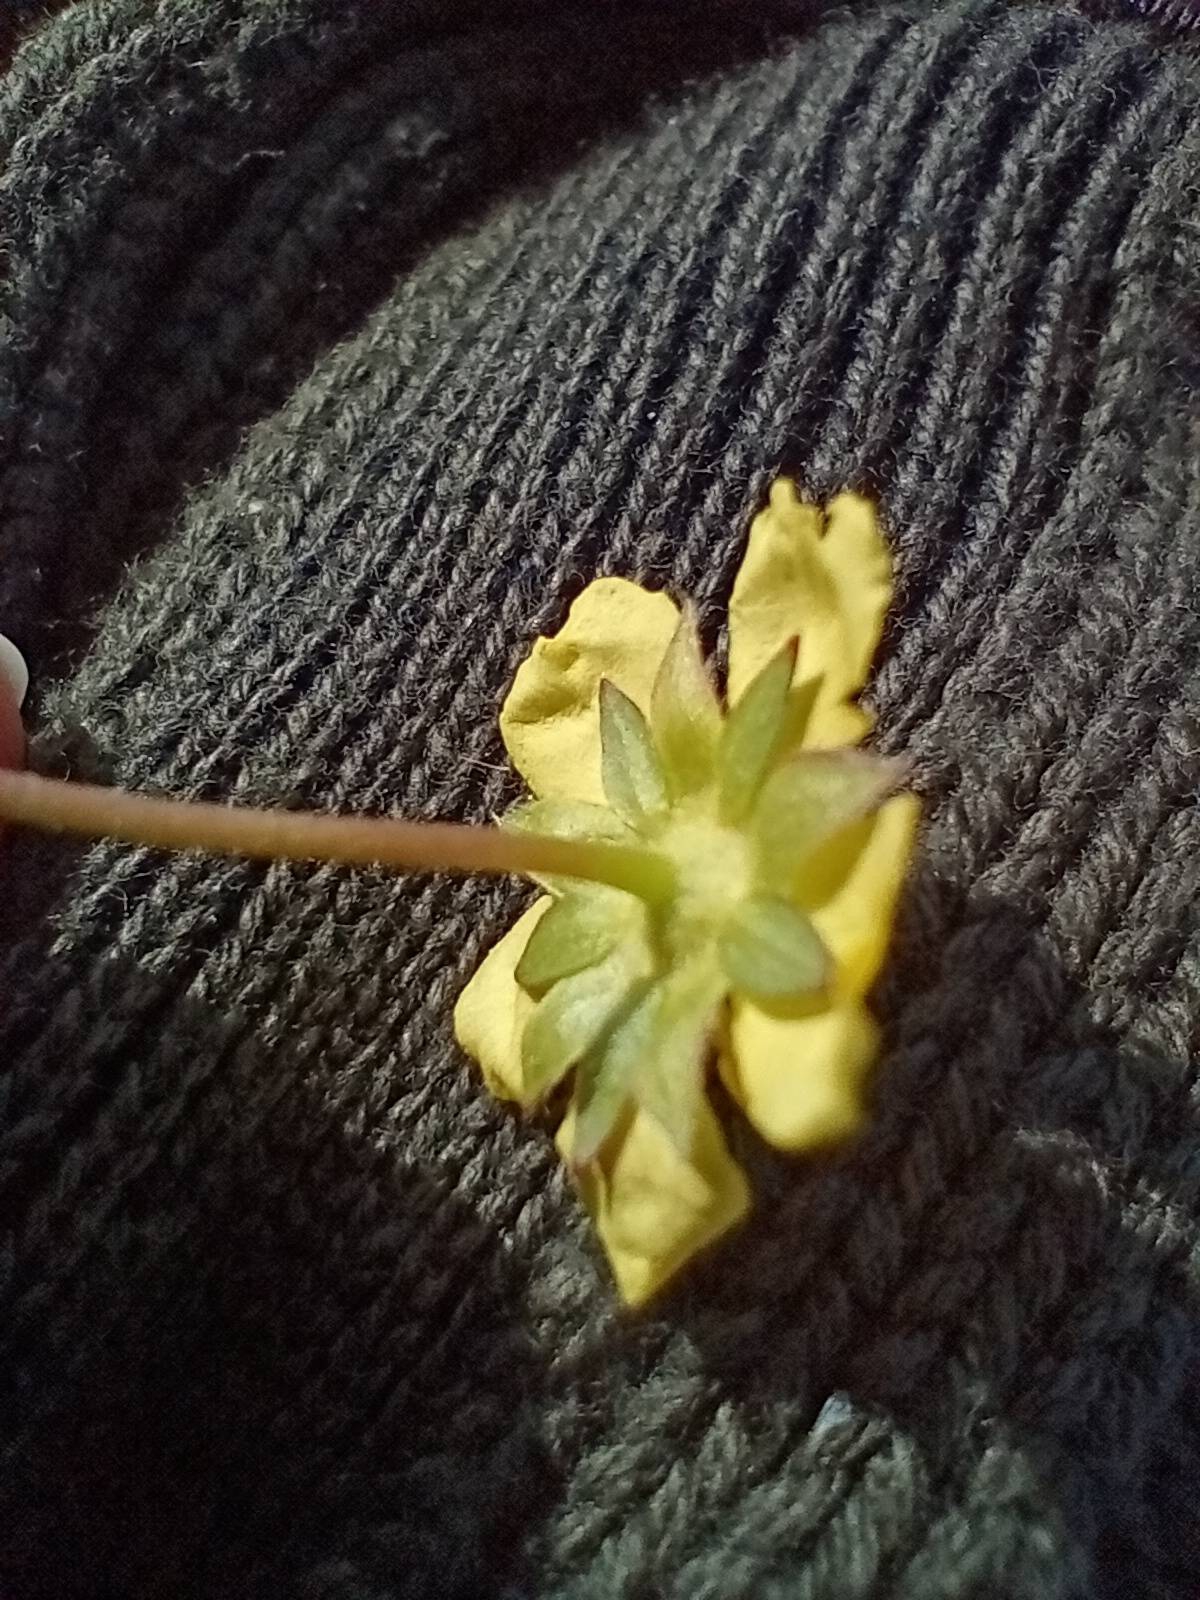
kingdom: Plantae
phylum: Tracheophyta
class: Magnoliopsida
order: Rosales
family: Rosaceae
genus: Potentilla
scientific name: Potentilla reptans
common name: Krybende potentil
